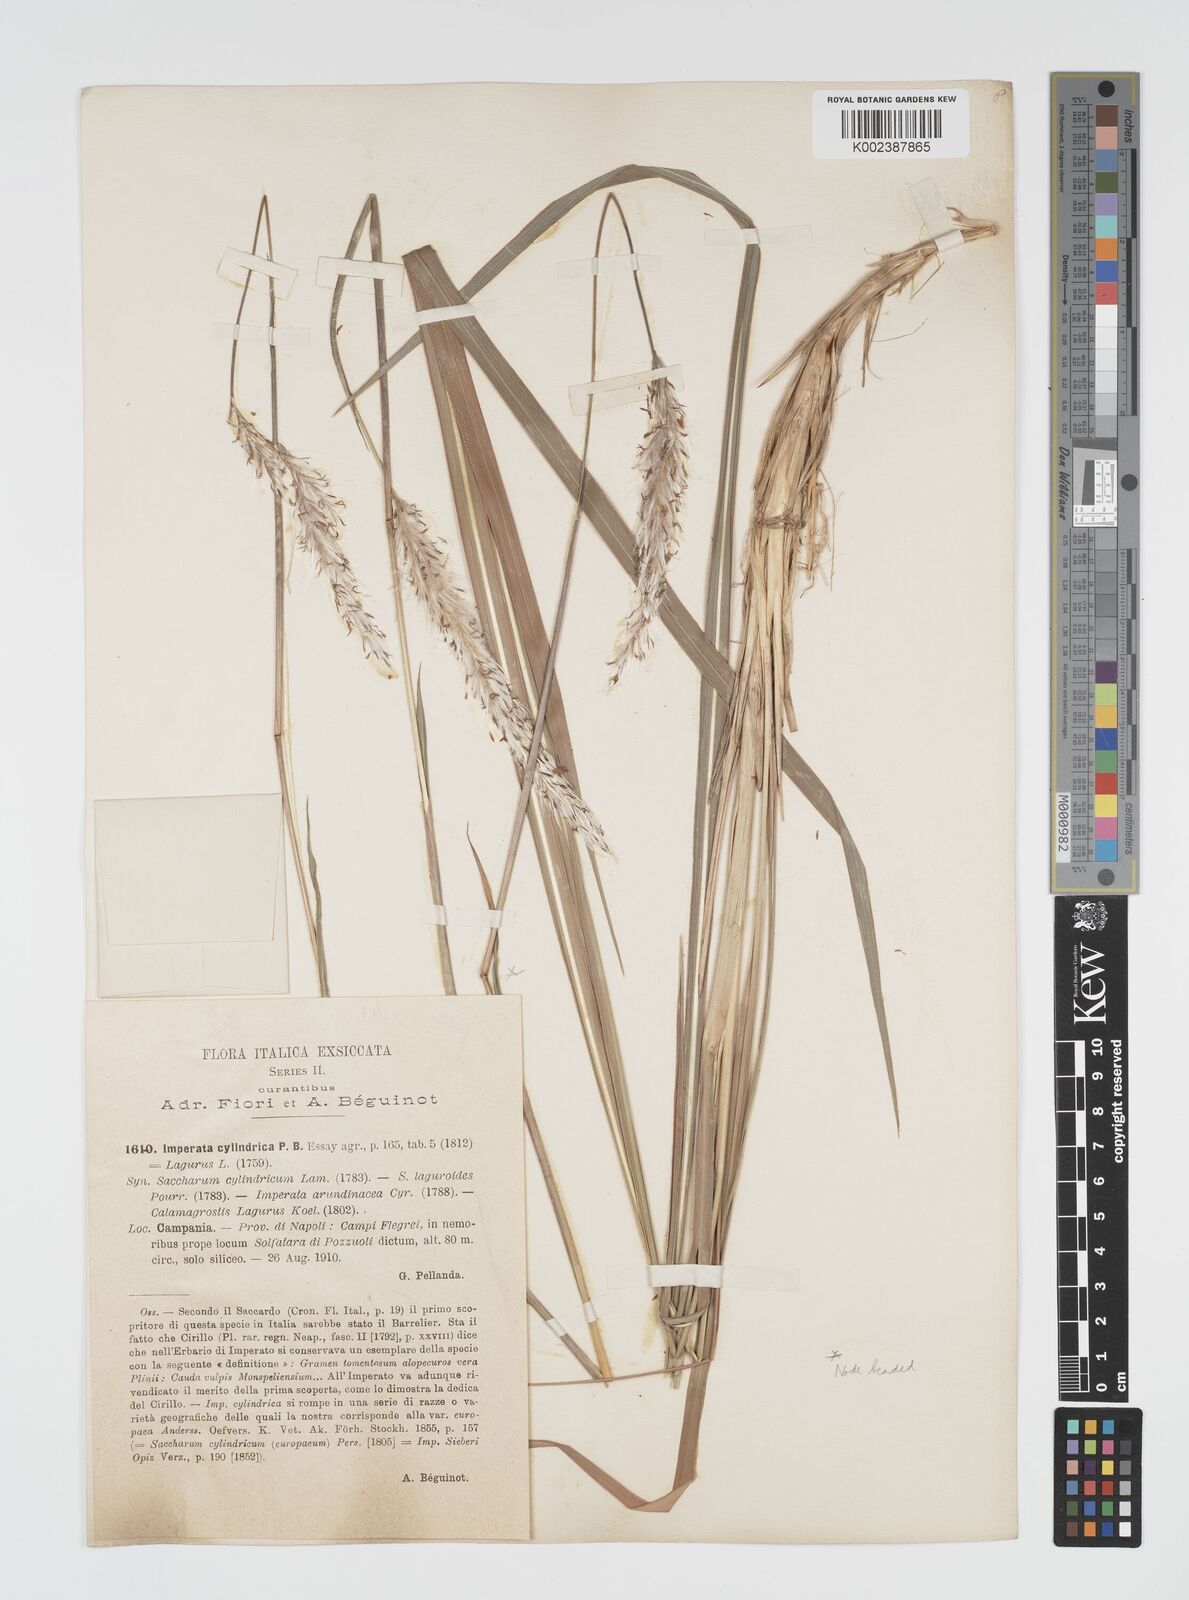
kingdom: Plantae
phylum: Tracheophyta
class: Liliopsida
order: Poales
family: Poaceae
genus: Imperata
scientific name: Imperata cylindrica
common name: Cogongrass
